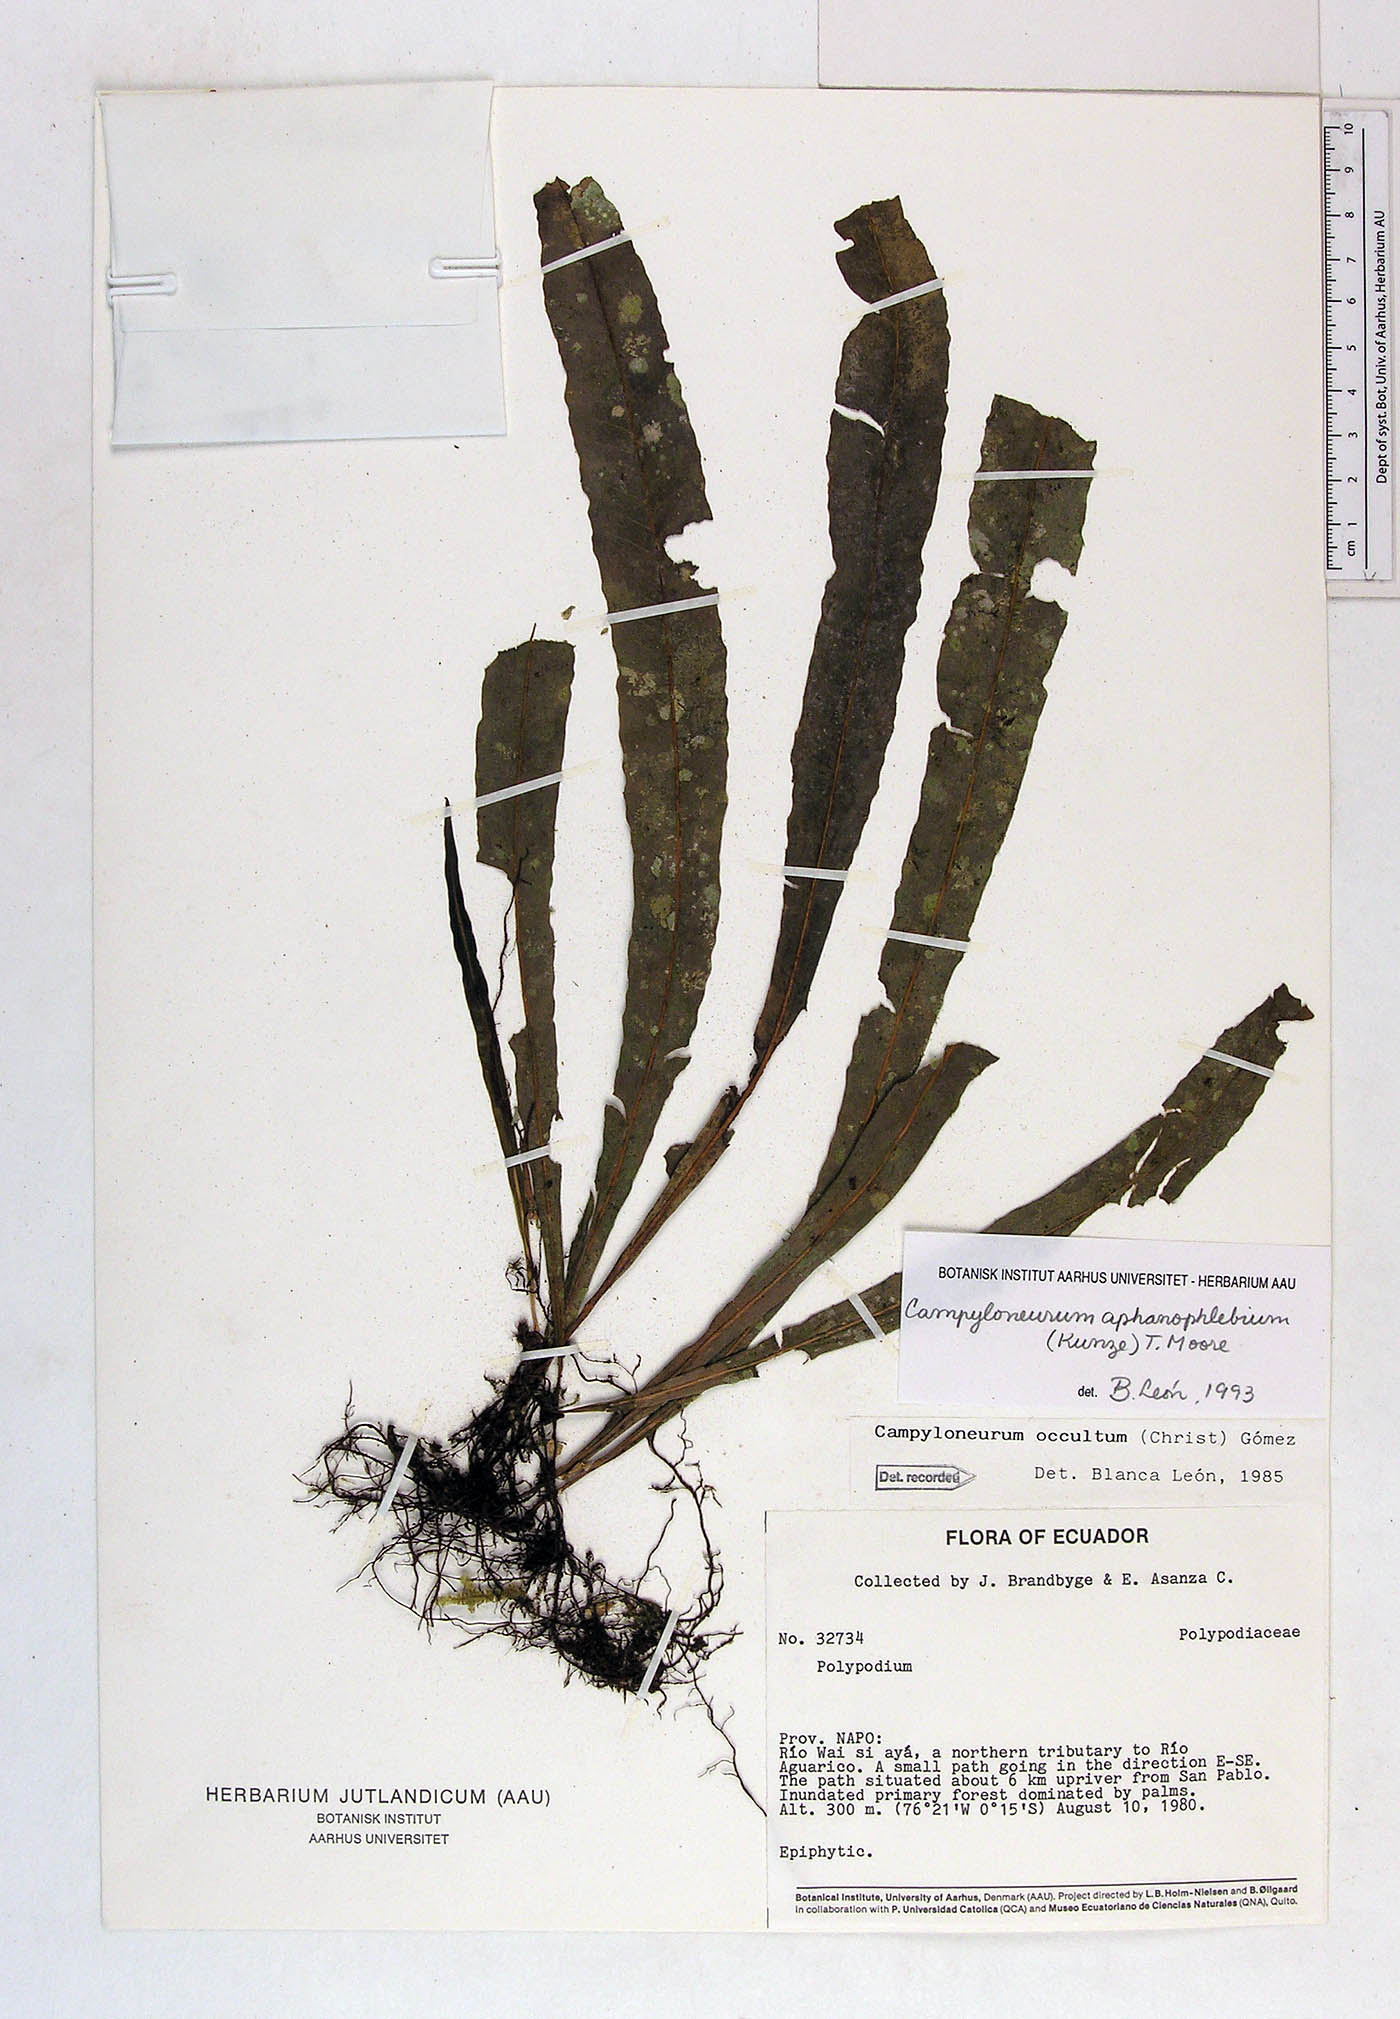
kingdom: Plantae
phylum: Tracheophyta
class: Polypodiopsida
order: Polypodiales
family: Polypodiaceae
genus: Campyloneurum
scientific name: Campyloneurum aphanophlebium
